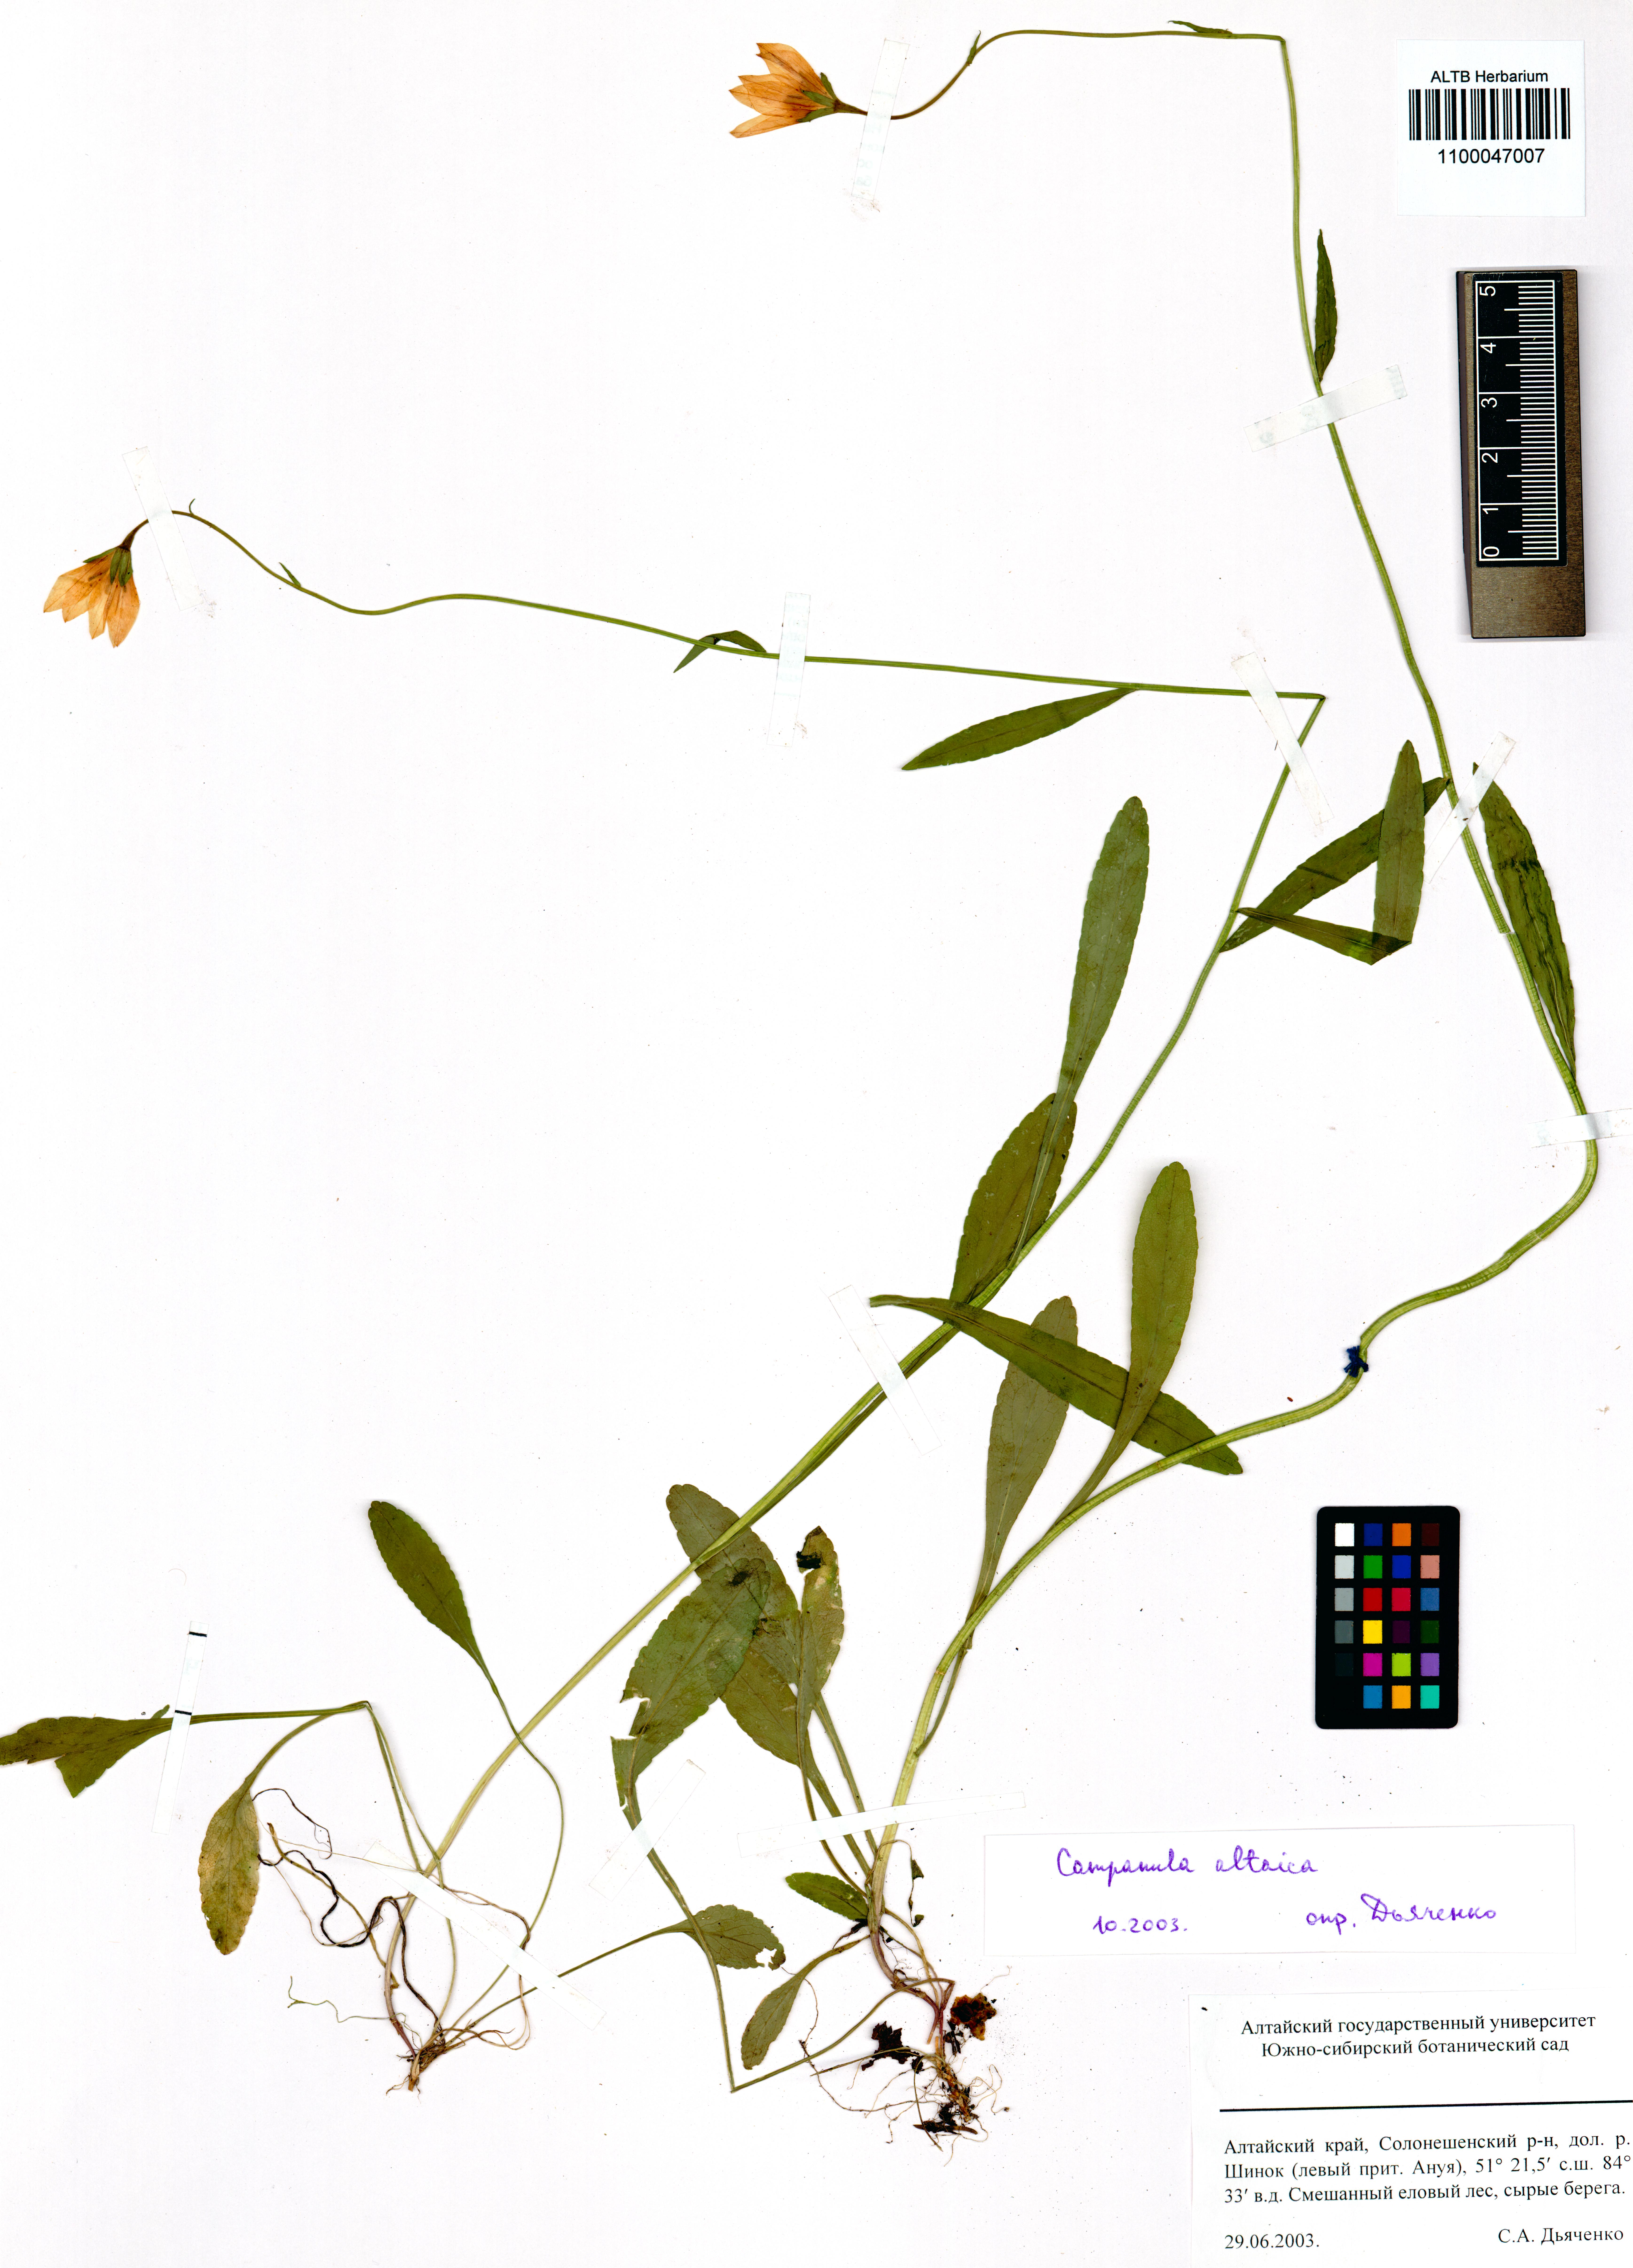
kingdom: Plantae
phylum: Tracheophyta
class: Magnoliopsida
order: Asterales
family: Campanulaceae
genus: Campanula
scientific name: Campanula stevenii
